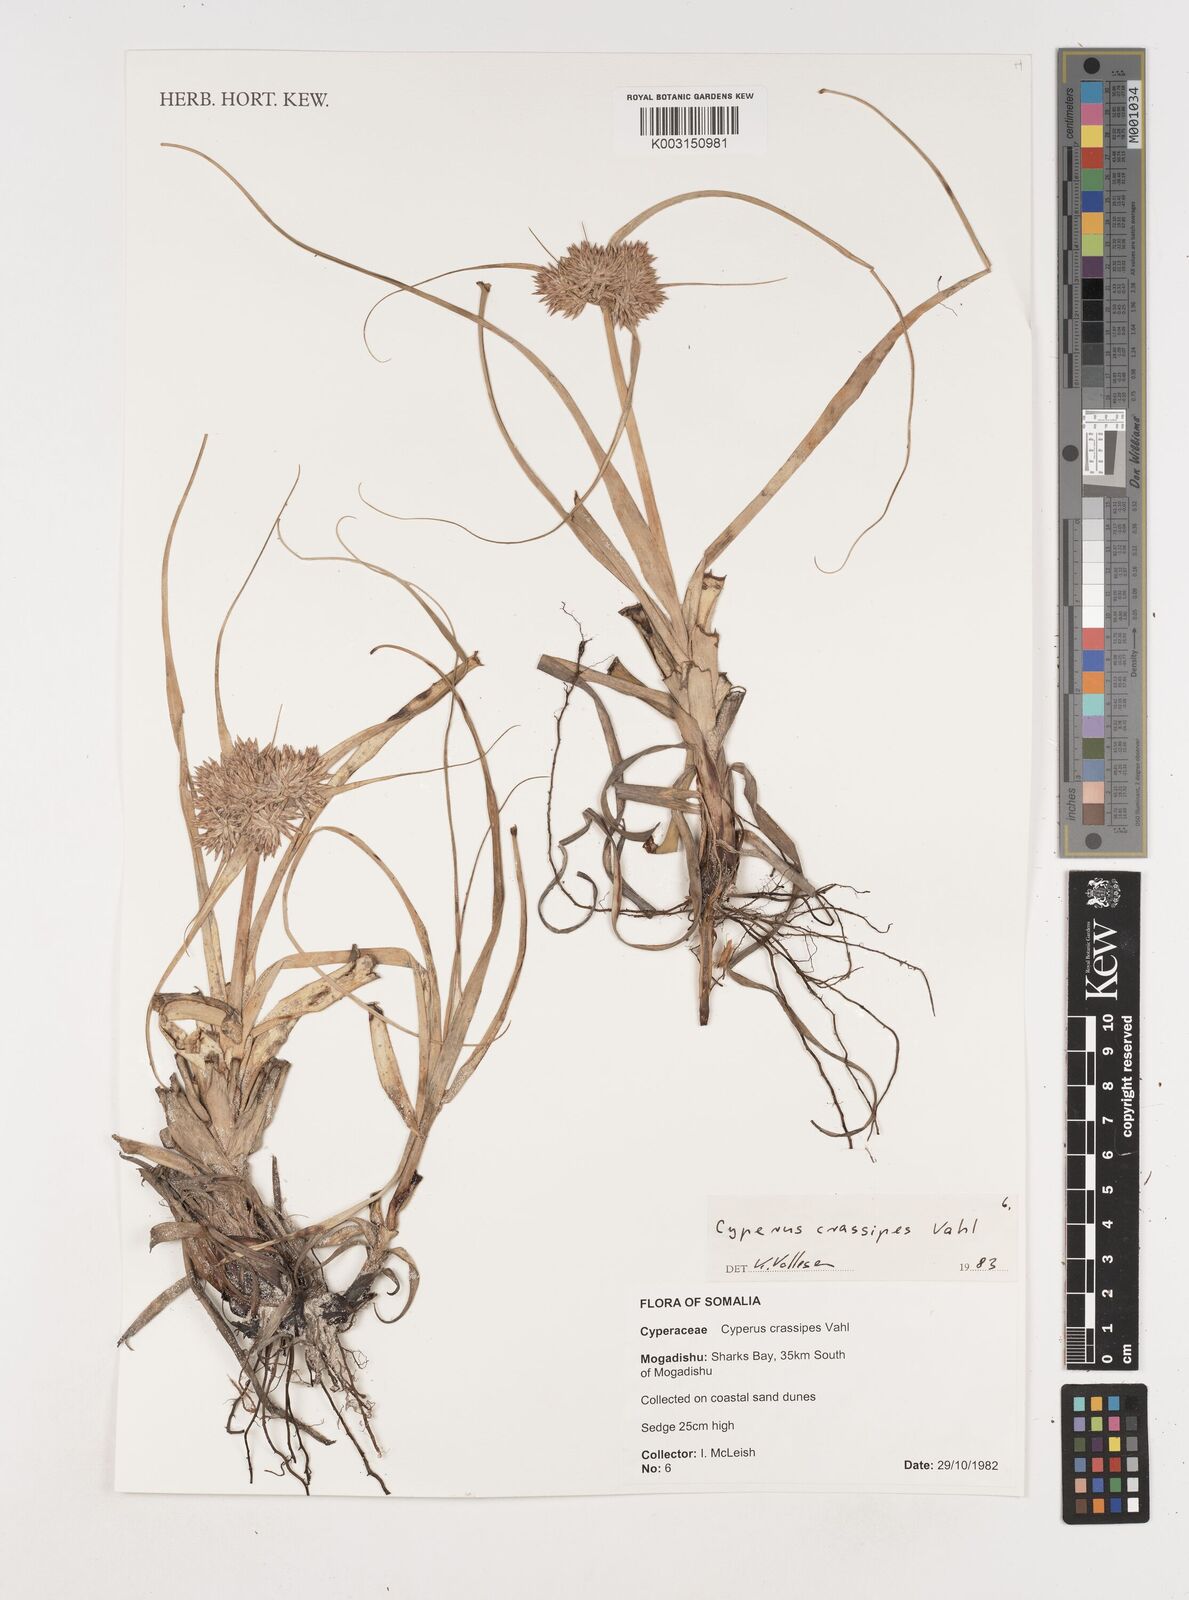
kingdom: Plantae
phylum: Tracheophyta
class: Liliopsida
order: Poales
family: Cyperaceae
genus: Cyperus
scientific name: Cyperus crassipes
